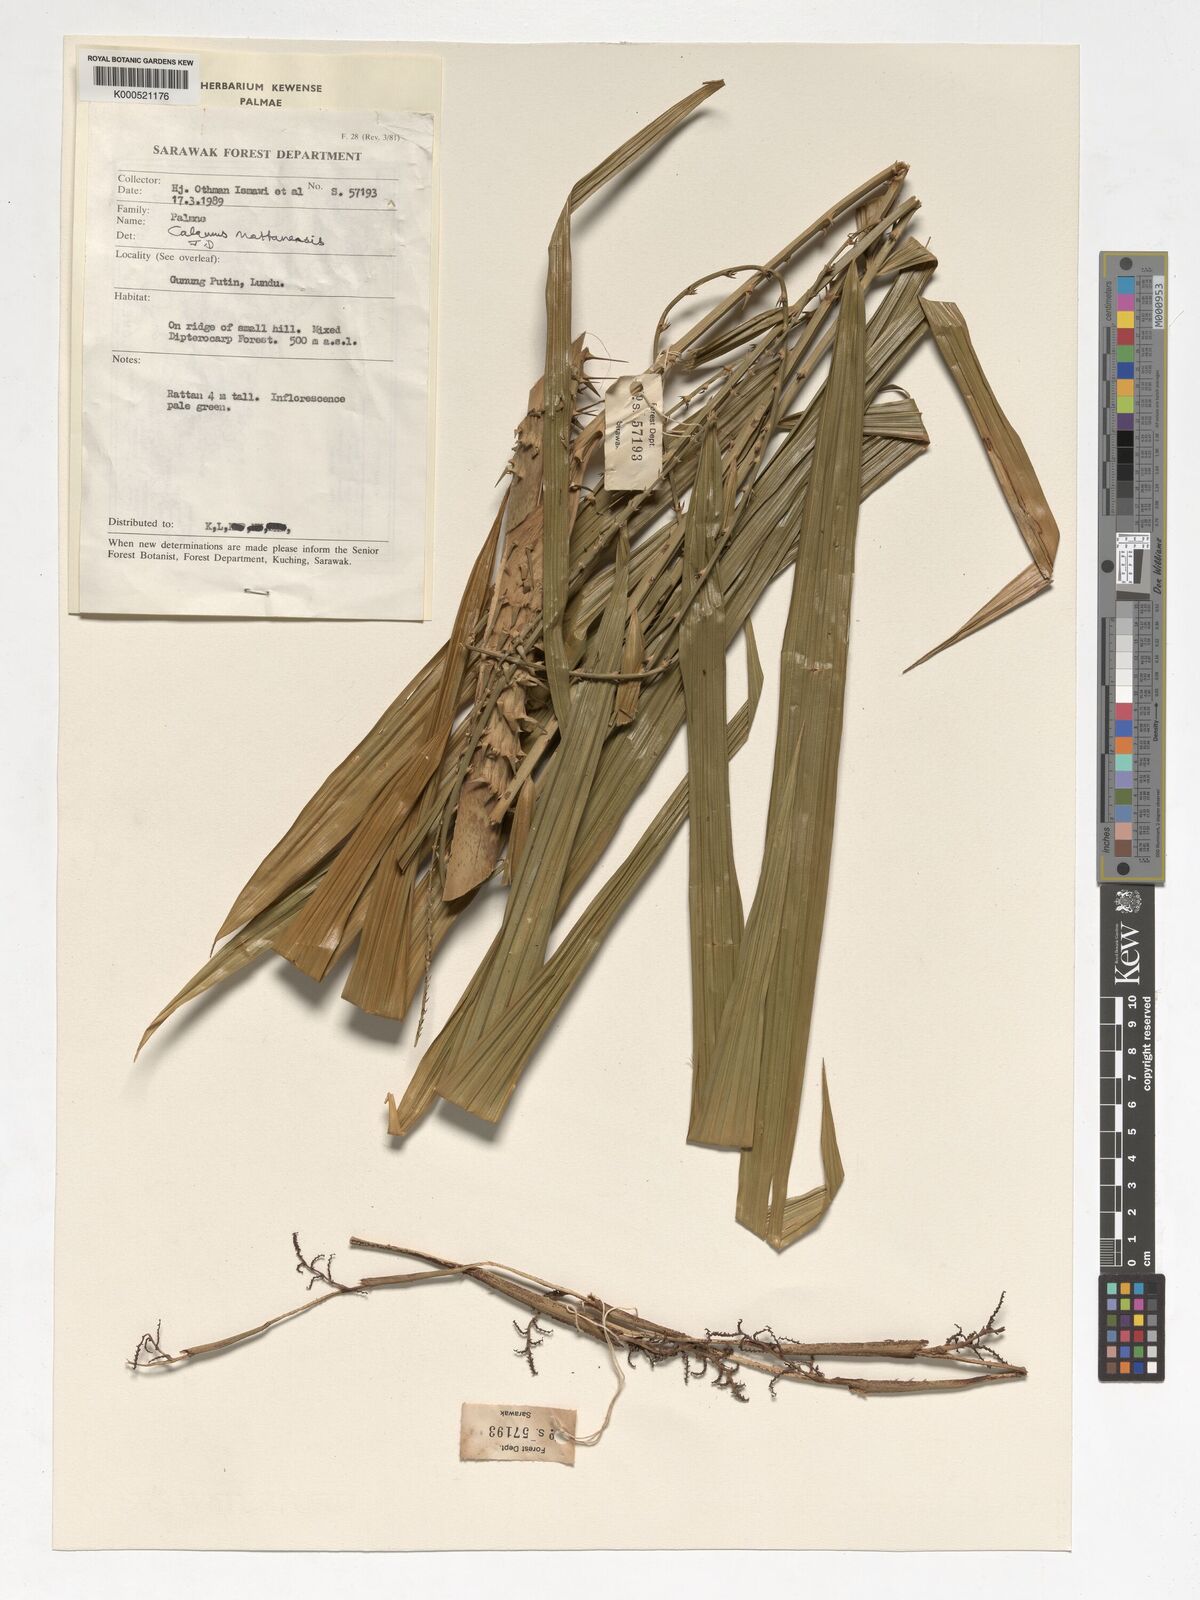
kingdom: Plantae
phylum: Tracheophyta
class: Liliopsida
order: Arecales
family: Arecaceae
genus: Calamus
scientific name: Calamus
